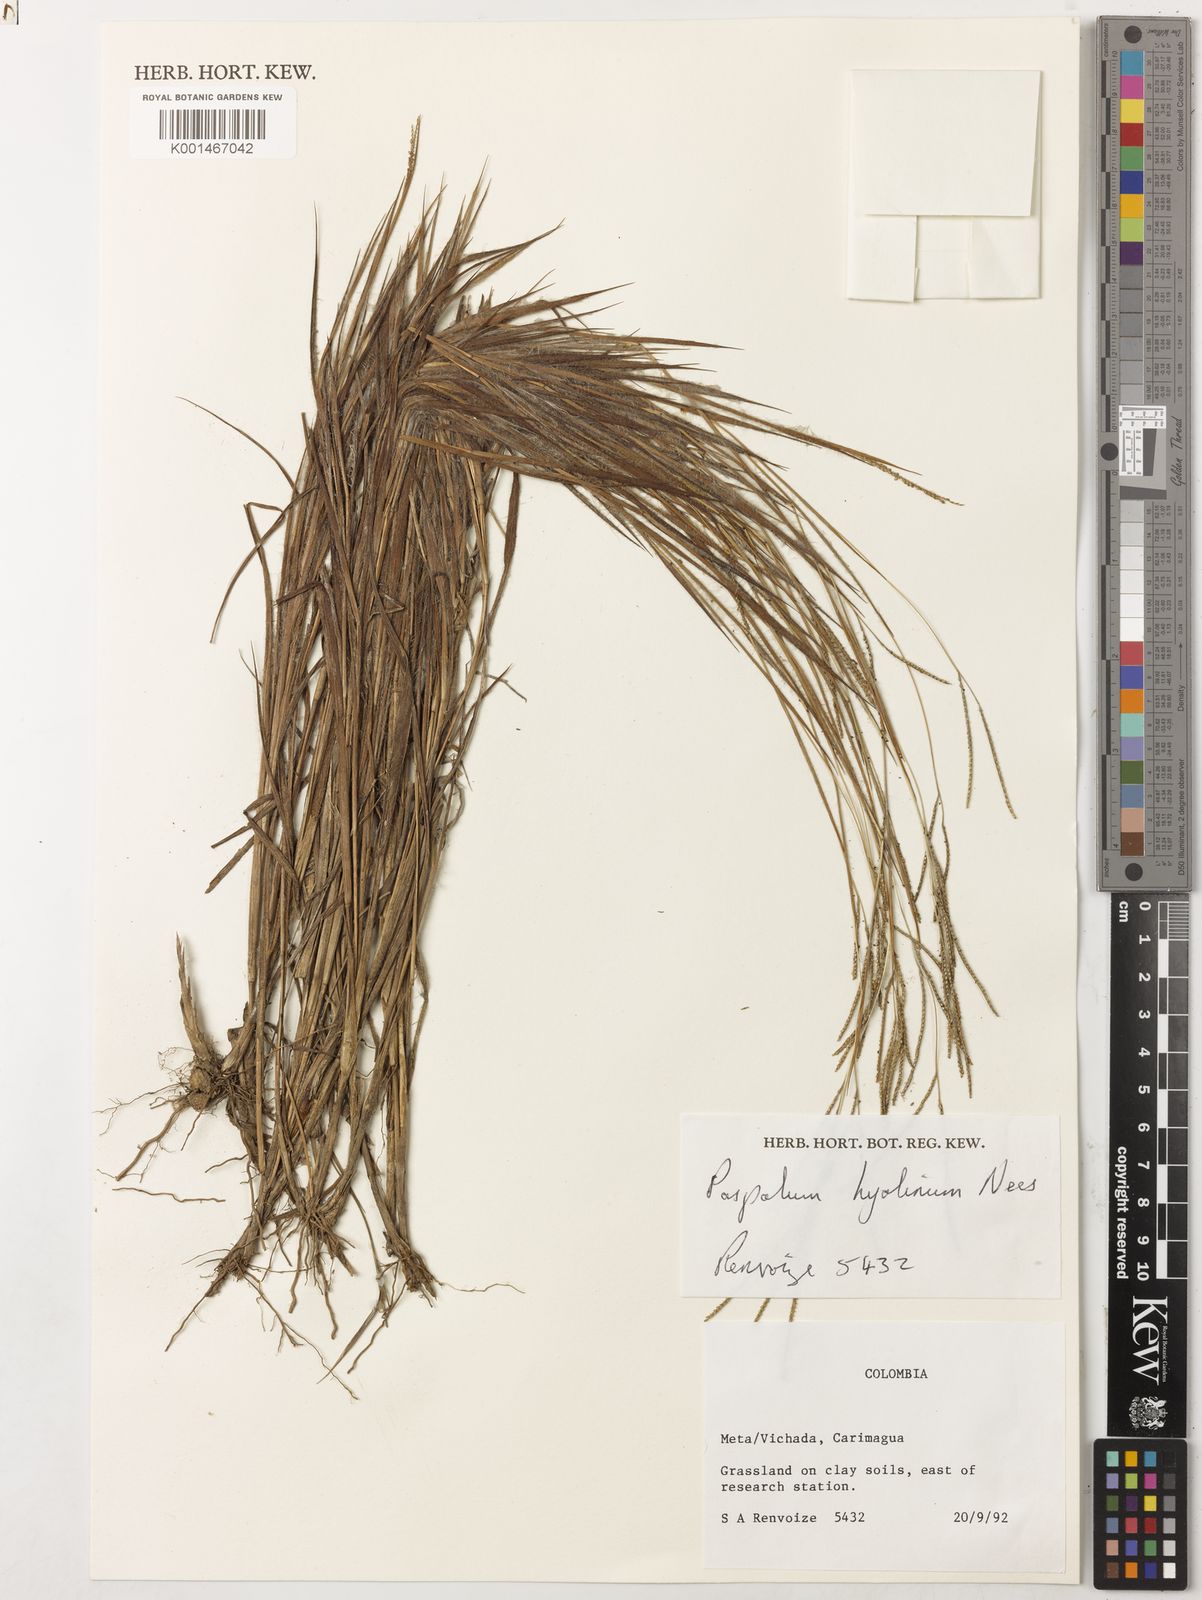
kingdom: Plantae
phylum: Tracheophyta
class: Liliopsida
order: Poales
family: Poaceae
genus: Paspalum
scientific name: Paspalum hyalinum
